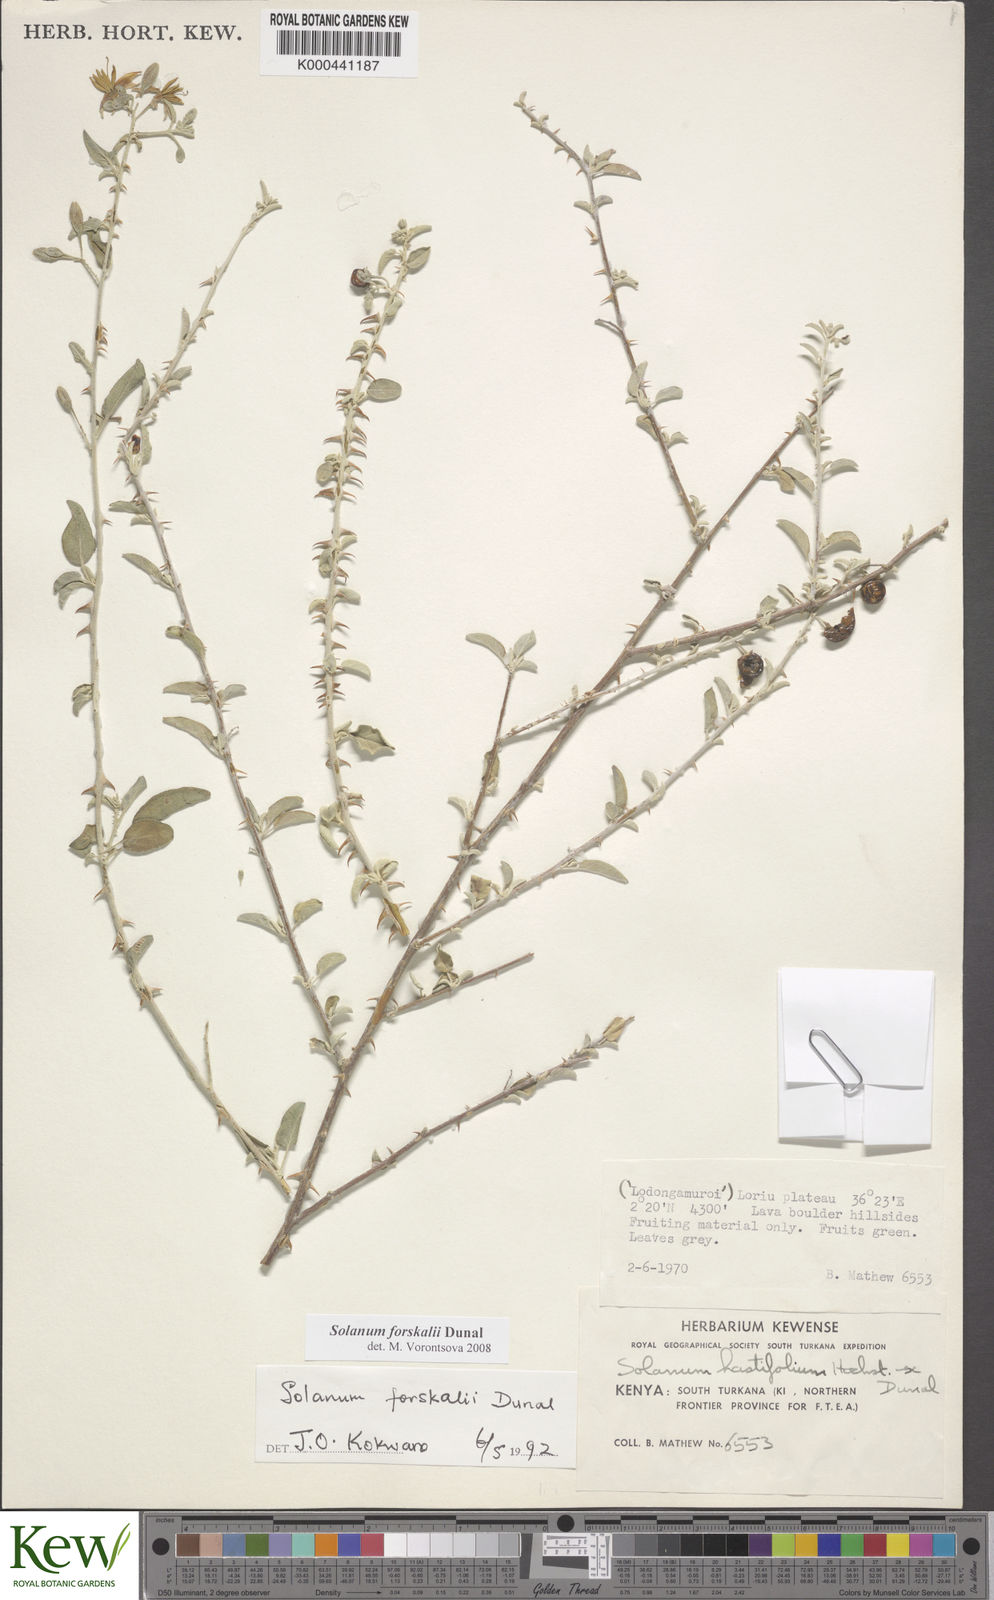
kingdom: Plantae
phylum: Tracheophyta
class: Magnoliopsida
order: Solanales
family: Solanaceae
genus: Solanum
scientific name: Solanum
